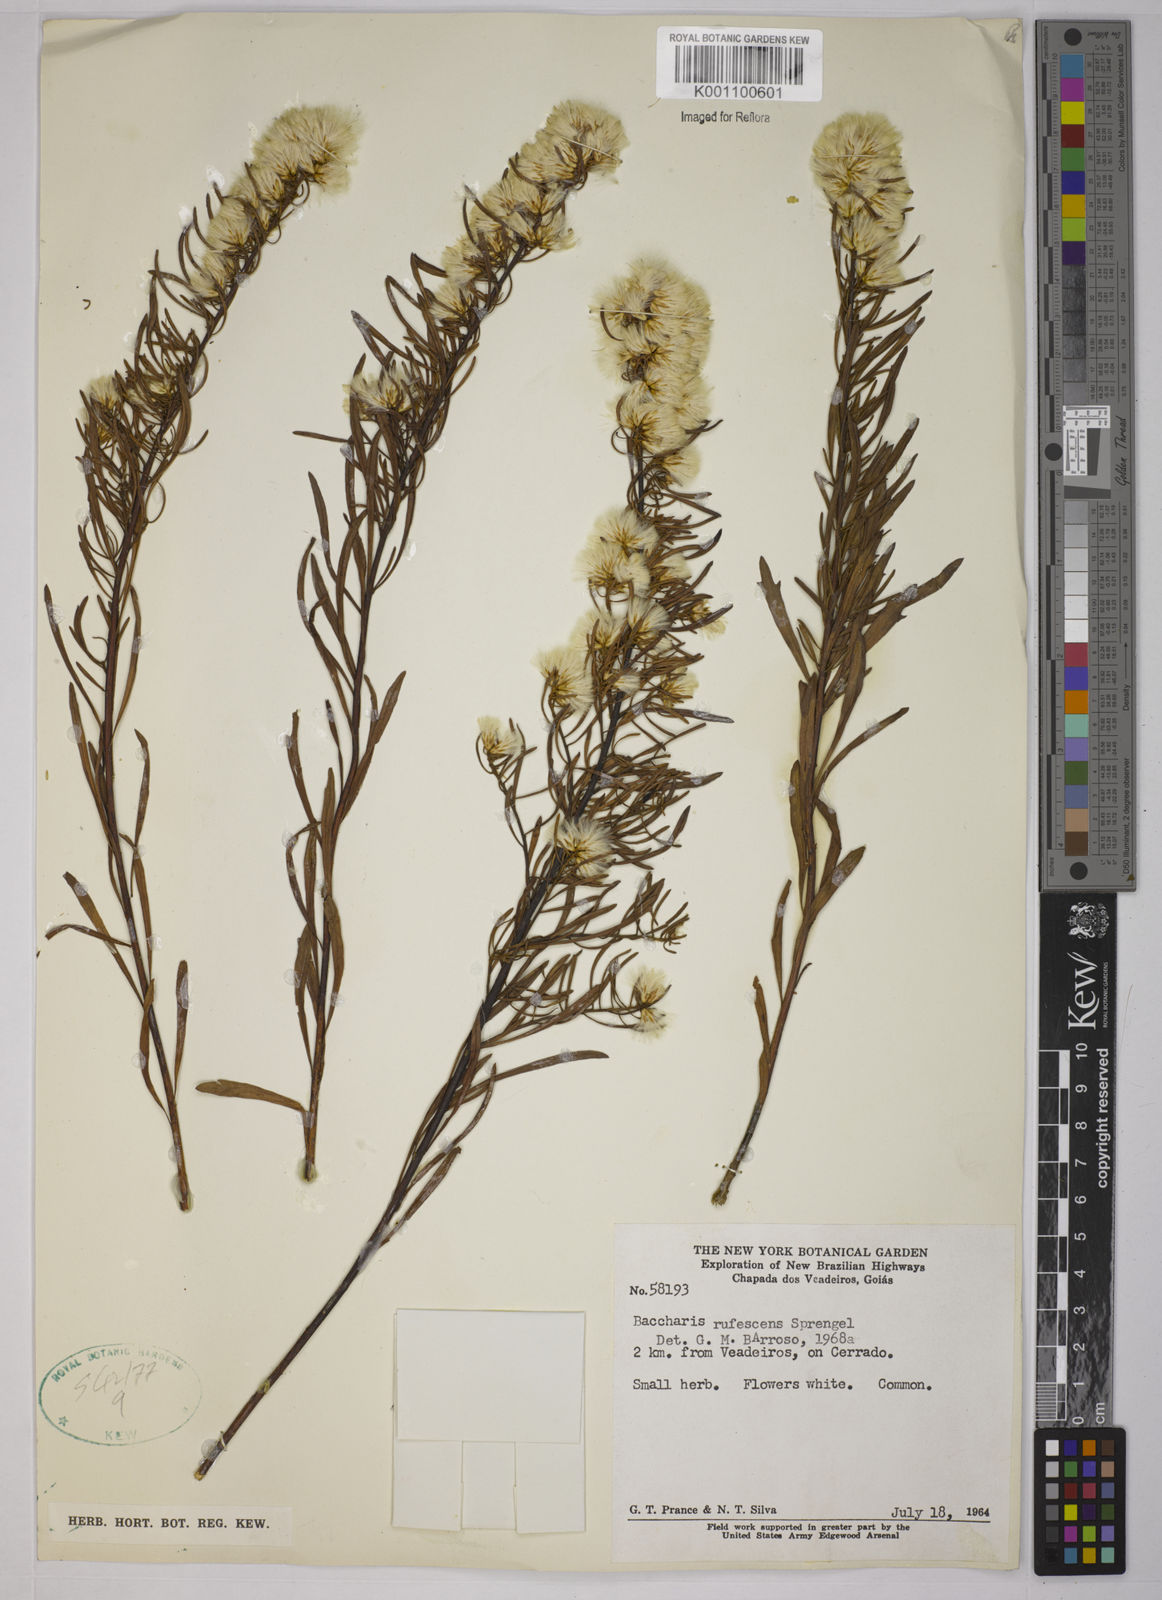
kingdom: Plantae
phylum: Tracheophyta
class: Magnoliopsida
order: Asterales
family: Asteraceae
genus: Baccharis
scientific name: Baccharis rufescens
